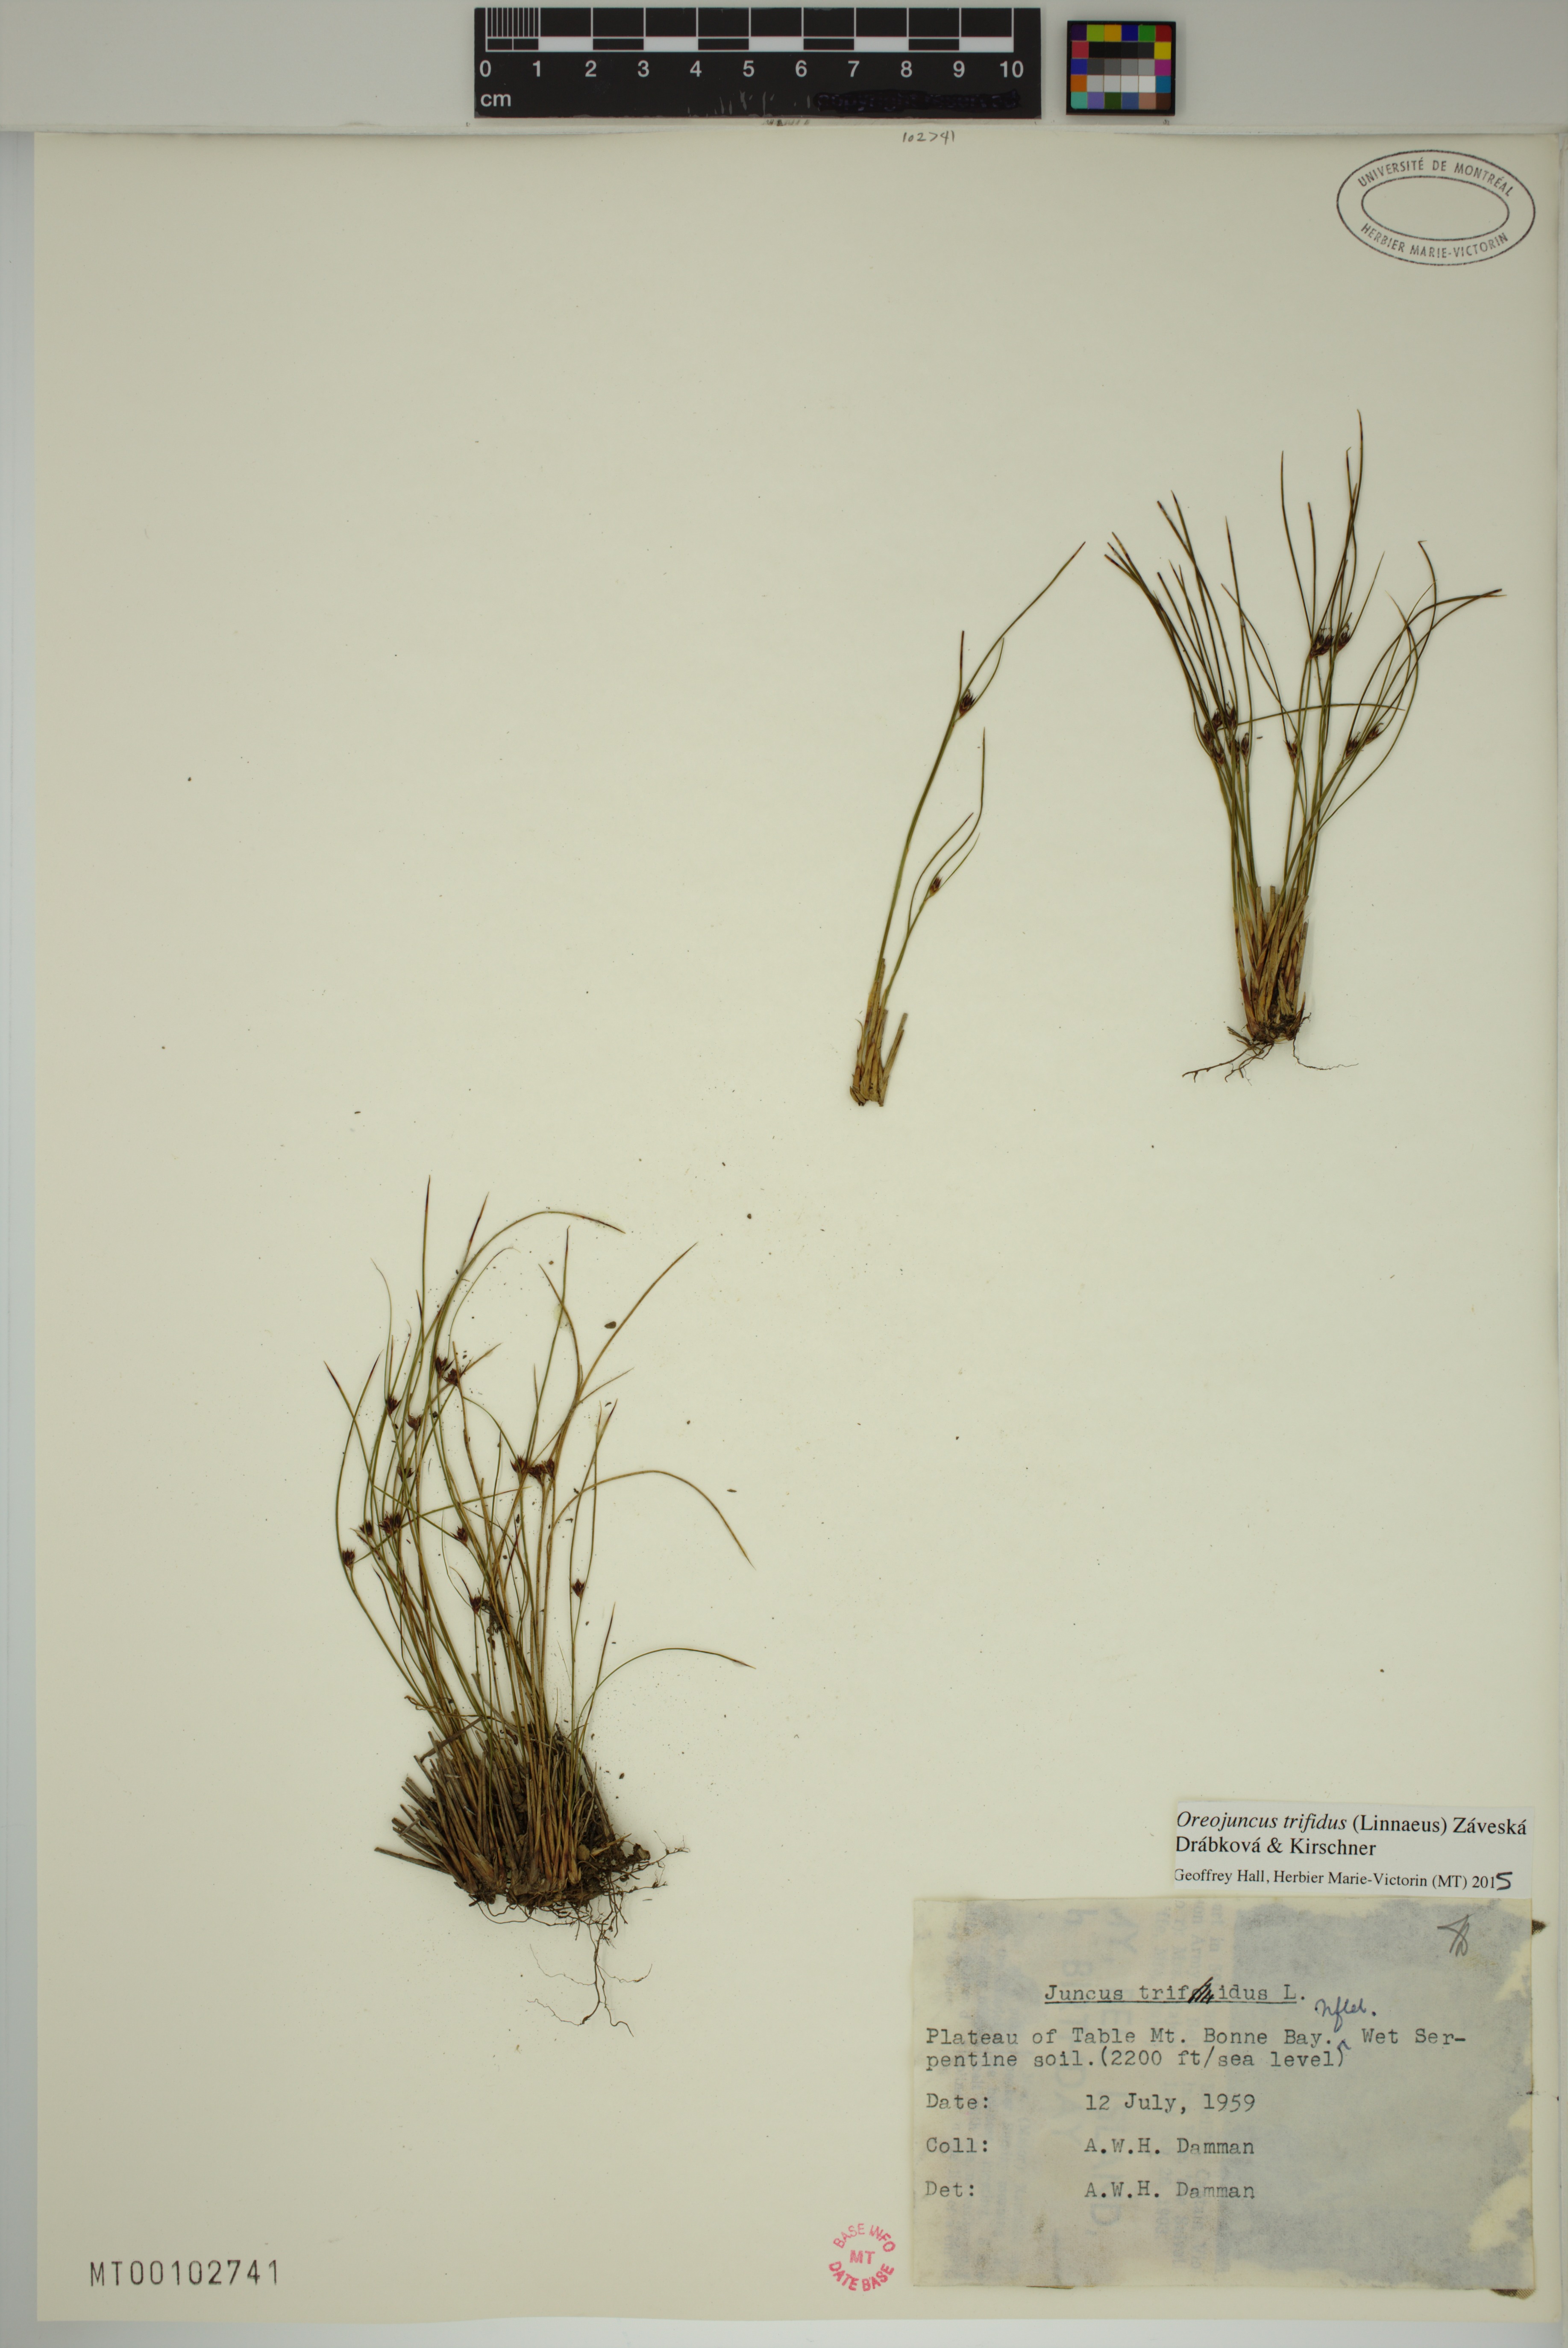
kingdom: Plantae
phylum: Tracheophyta
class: Liliopsida
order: Poales
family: Juncaceae
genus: Oreojuncus
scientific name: Oreojuncus trifidus
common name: Highland rush
